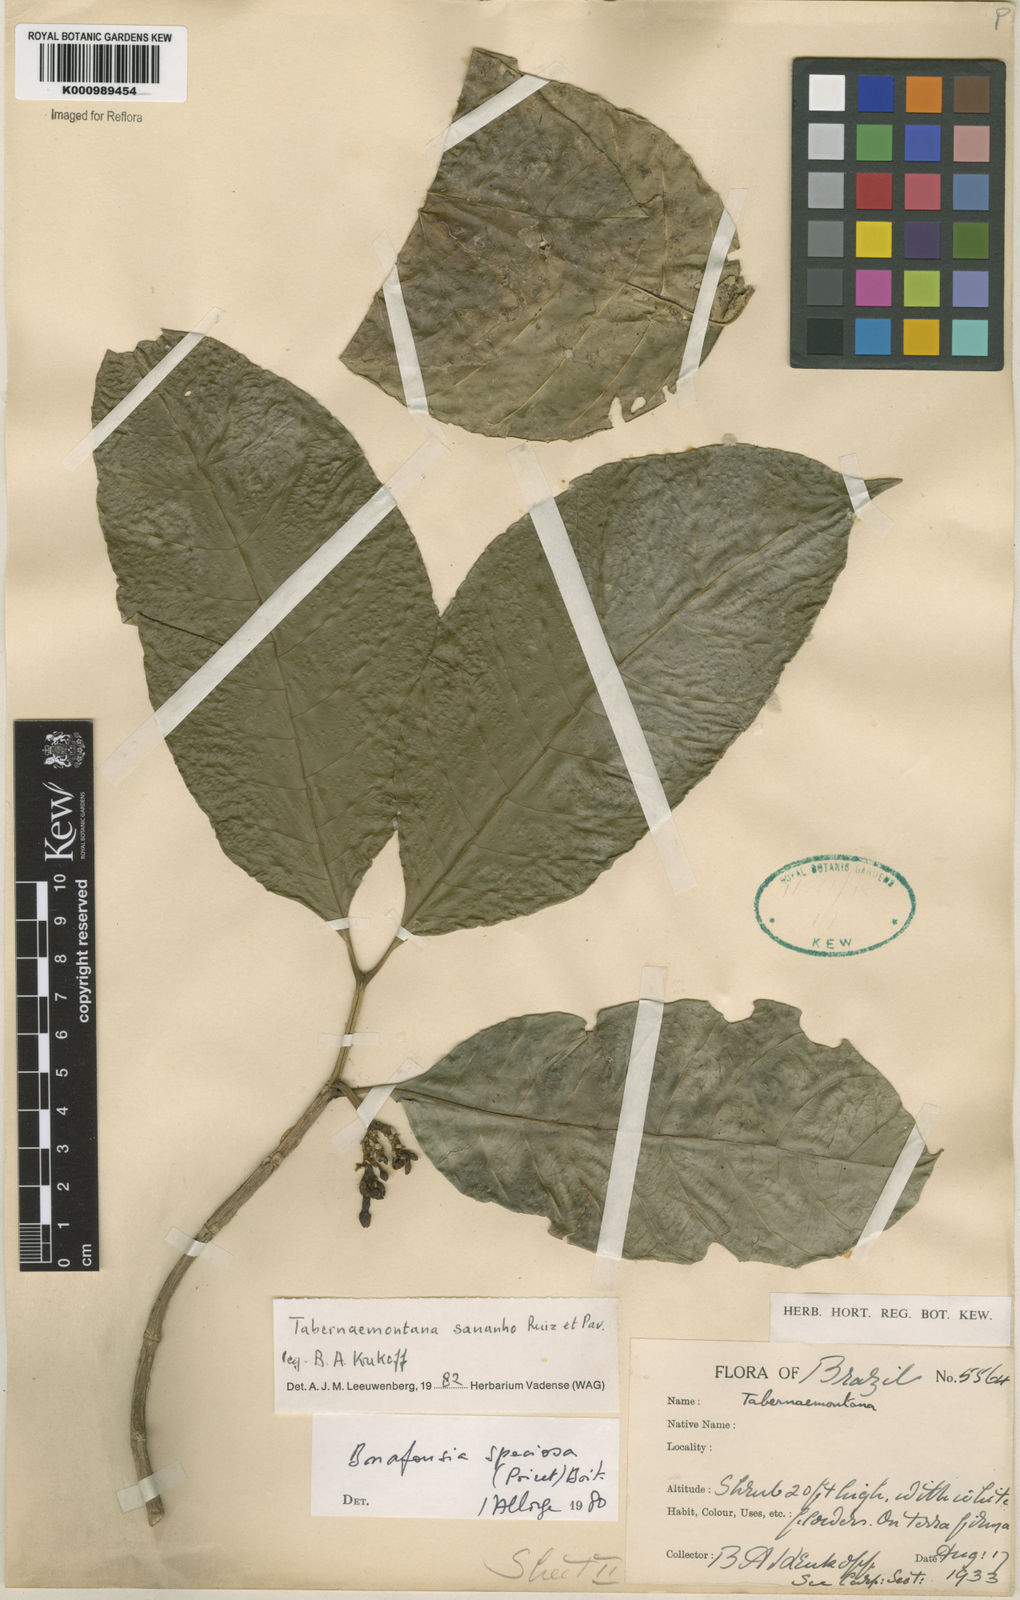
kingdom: Plantae
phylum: Tracheophyta
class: Magnoliopsida
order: Gentianales
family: Apocynaceae
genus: Tabernaemontana
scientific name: Tabernaemontana sananho
